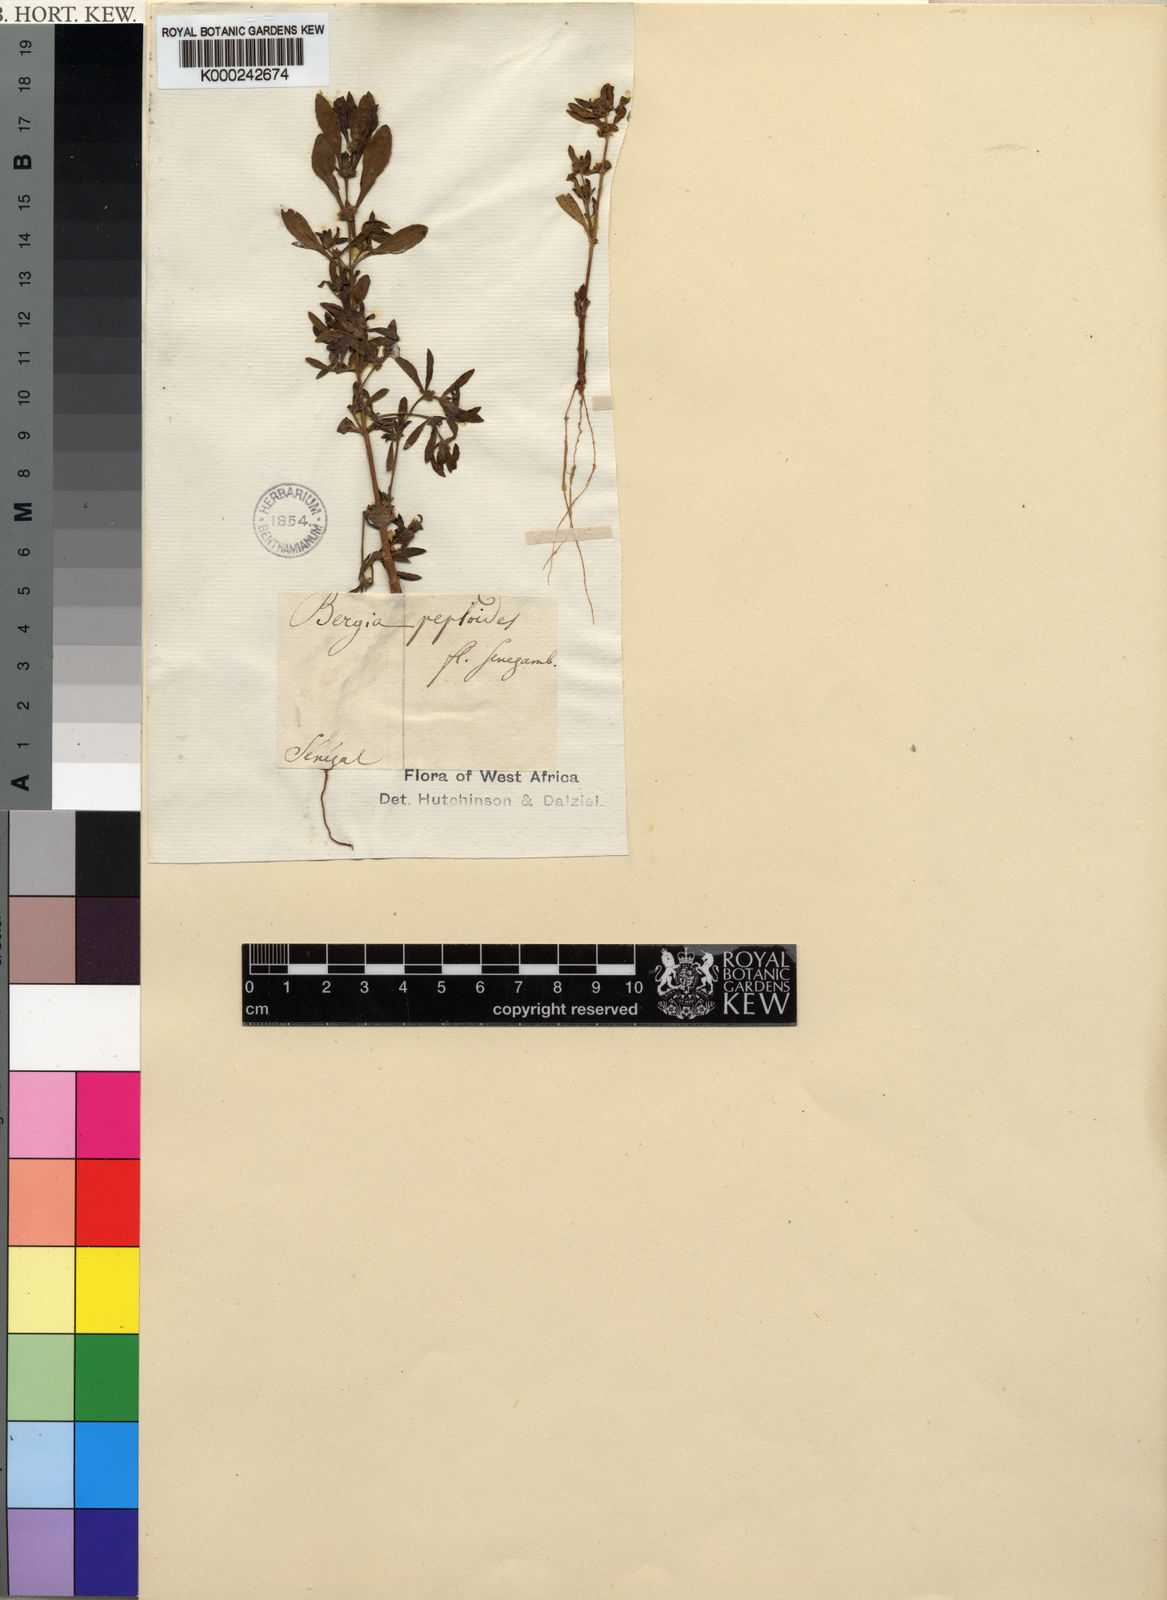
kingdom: Plantae
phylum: Tracheophyta
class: Magnoliopsida
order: Malpighiales
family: Elatinaceae
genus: Bergia
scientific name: Bergia ammannioides
